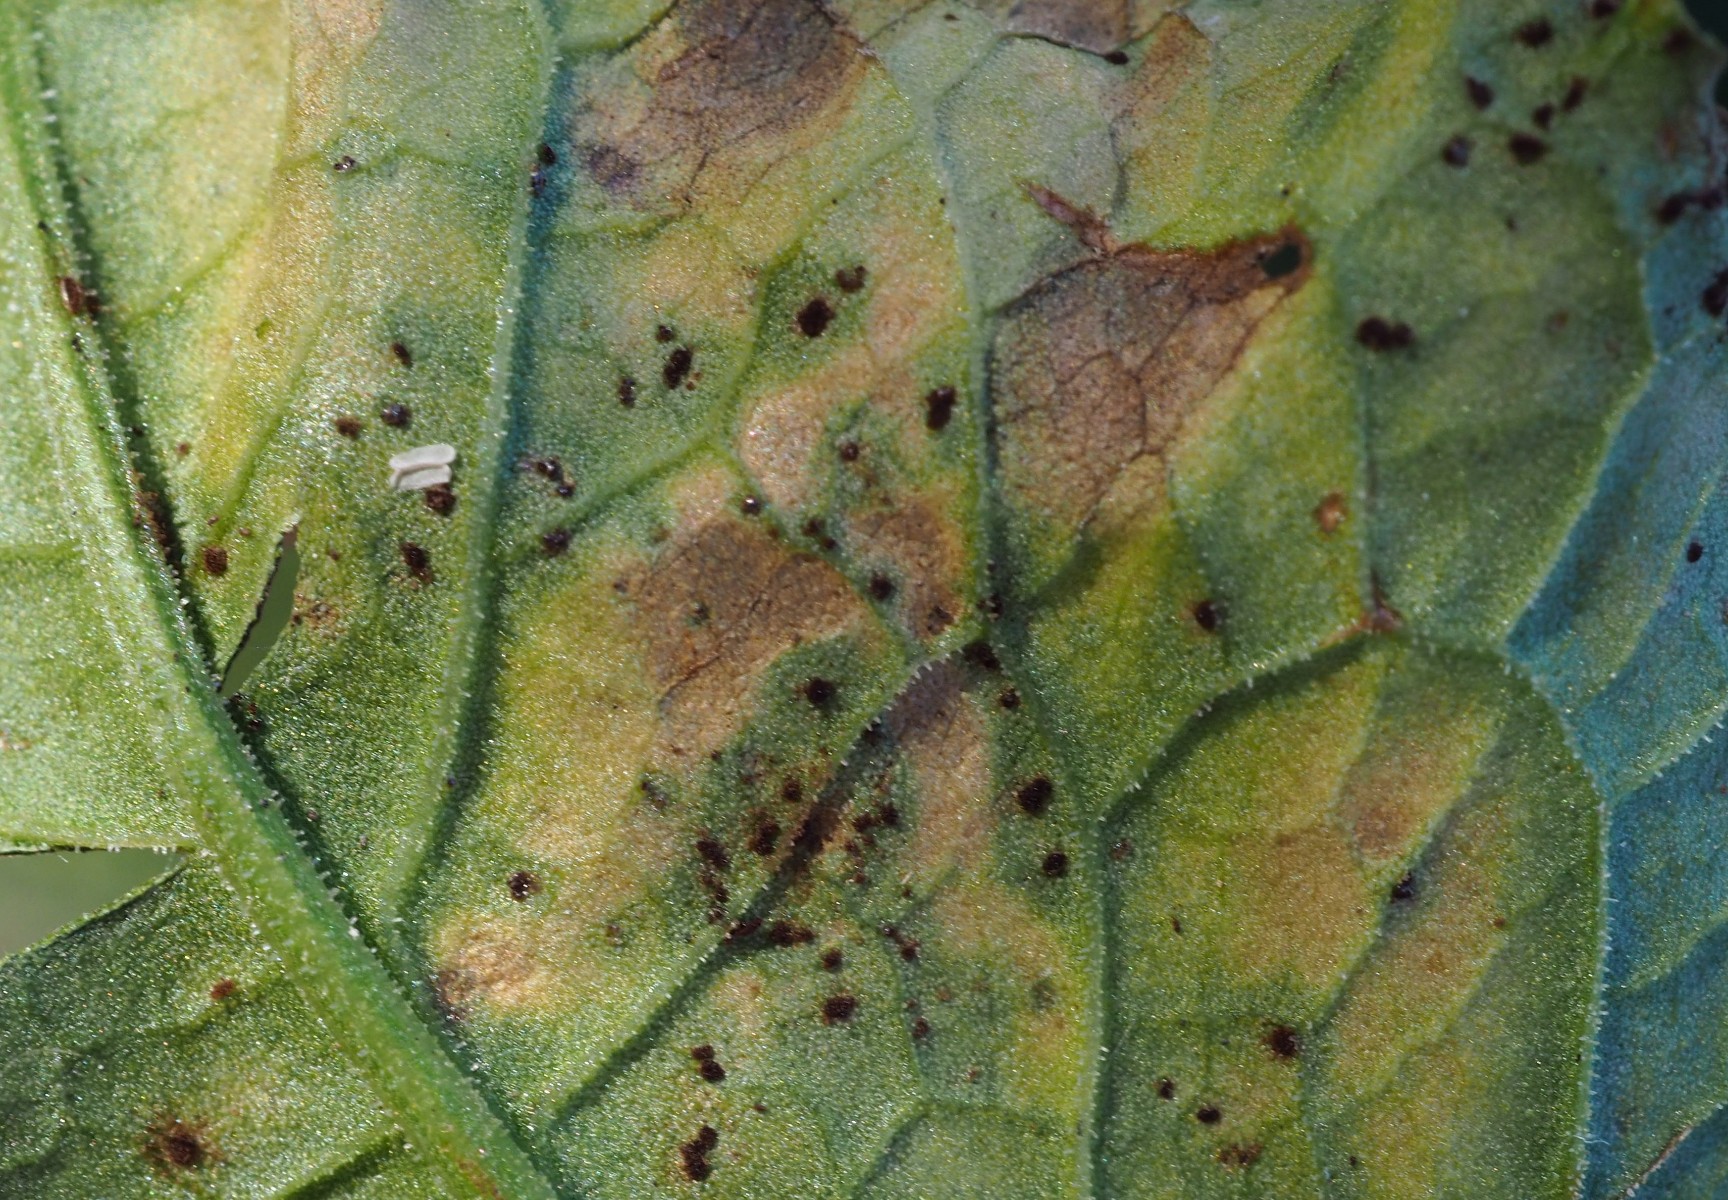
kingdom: Fungi
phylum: Basidiomycota
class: Pucciniomycetes
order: Pucciniales
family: Pucciniaceae
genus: Uromyces
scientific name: Uromyces rumicis
